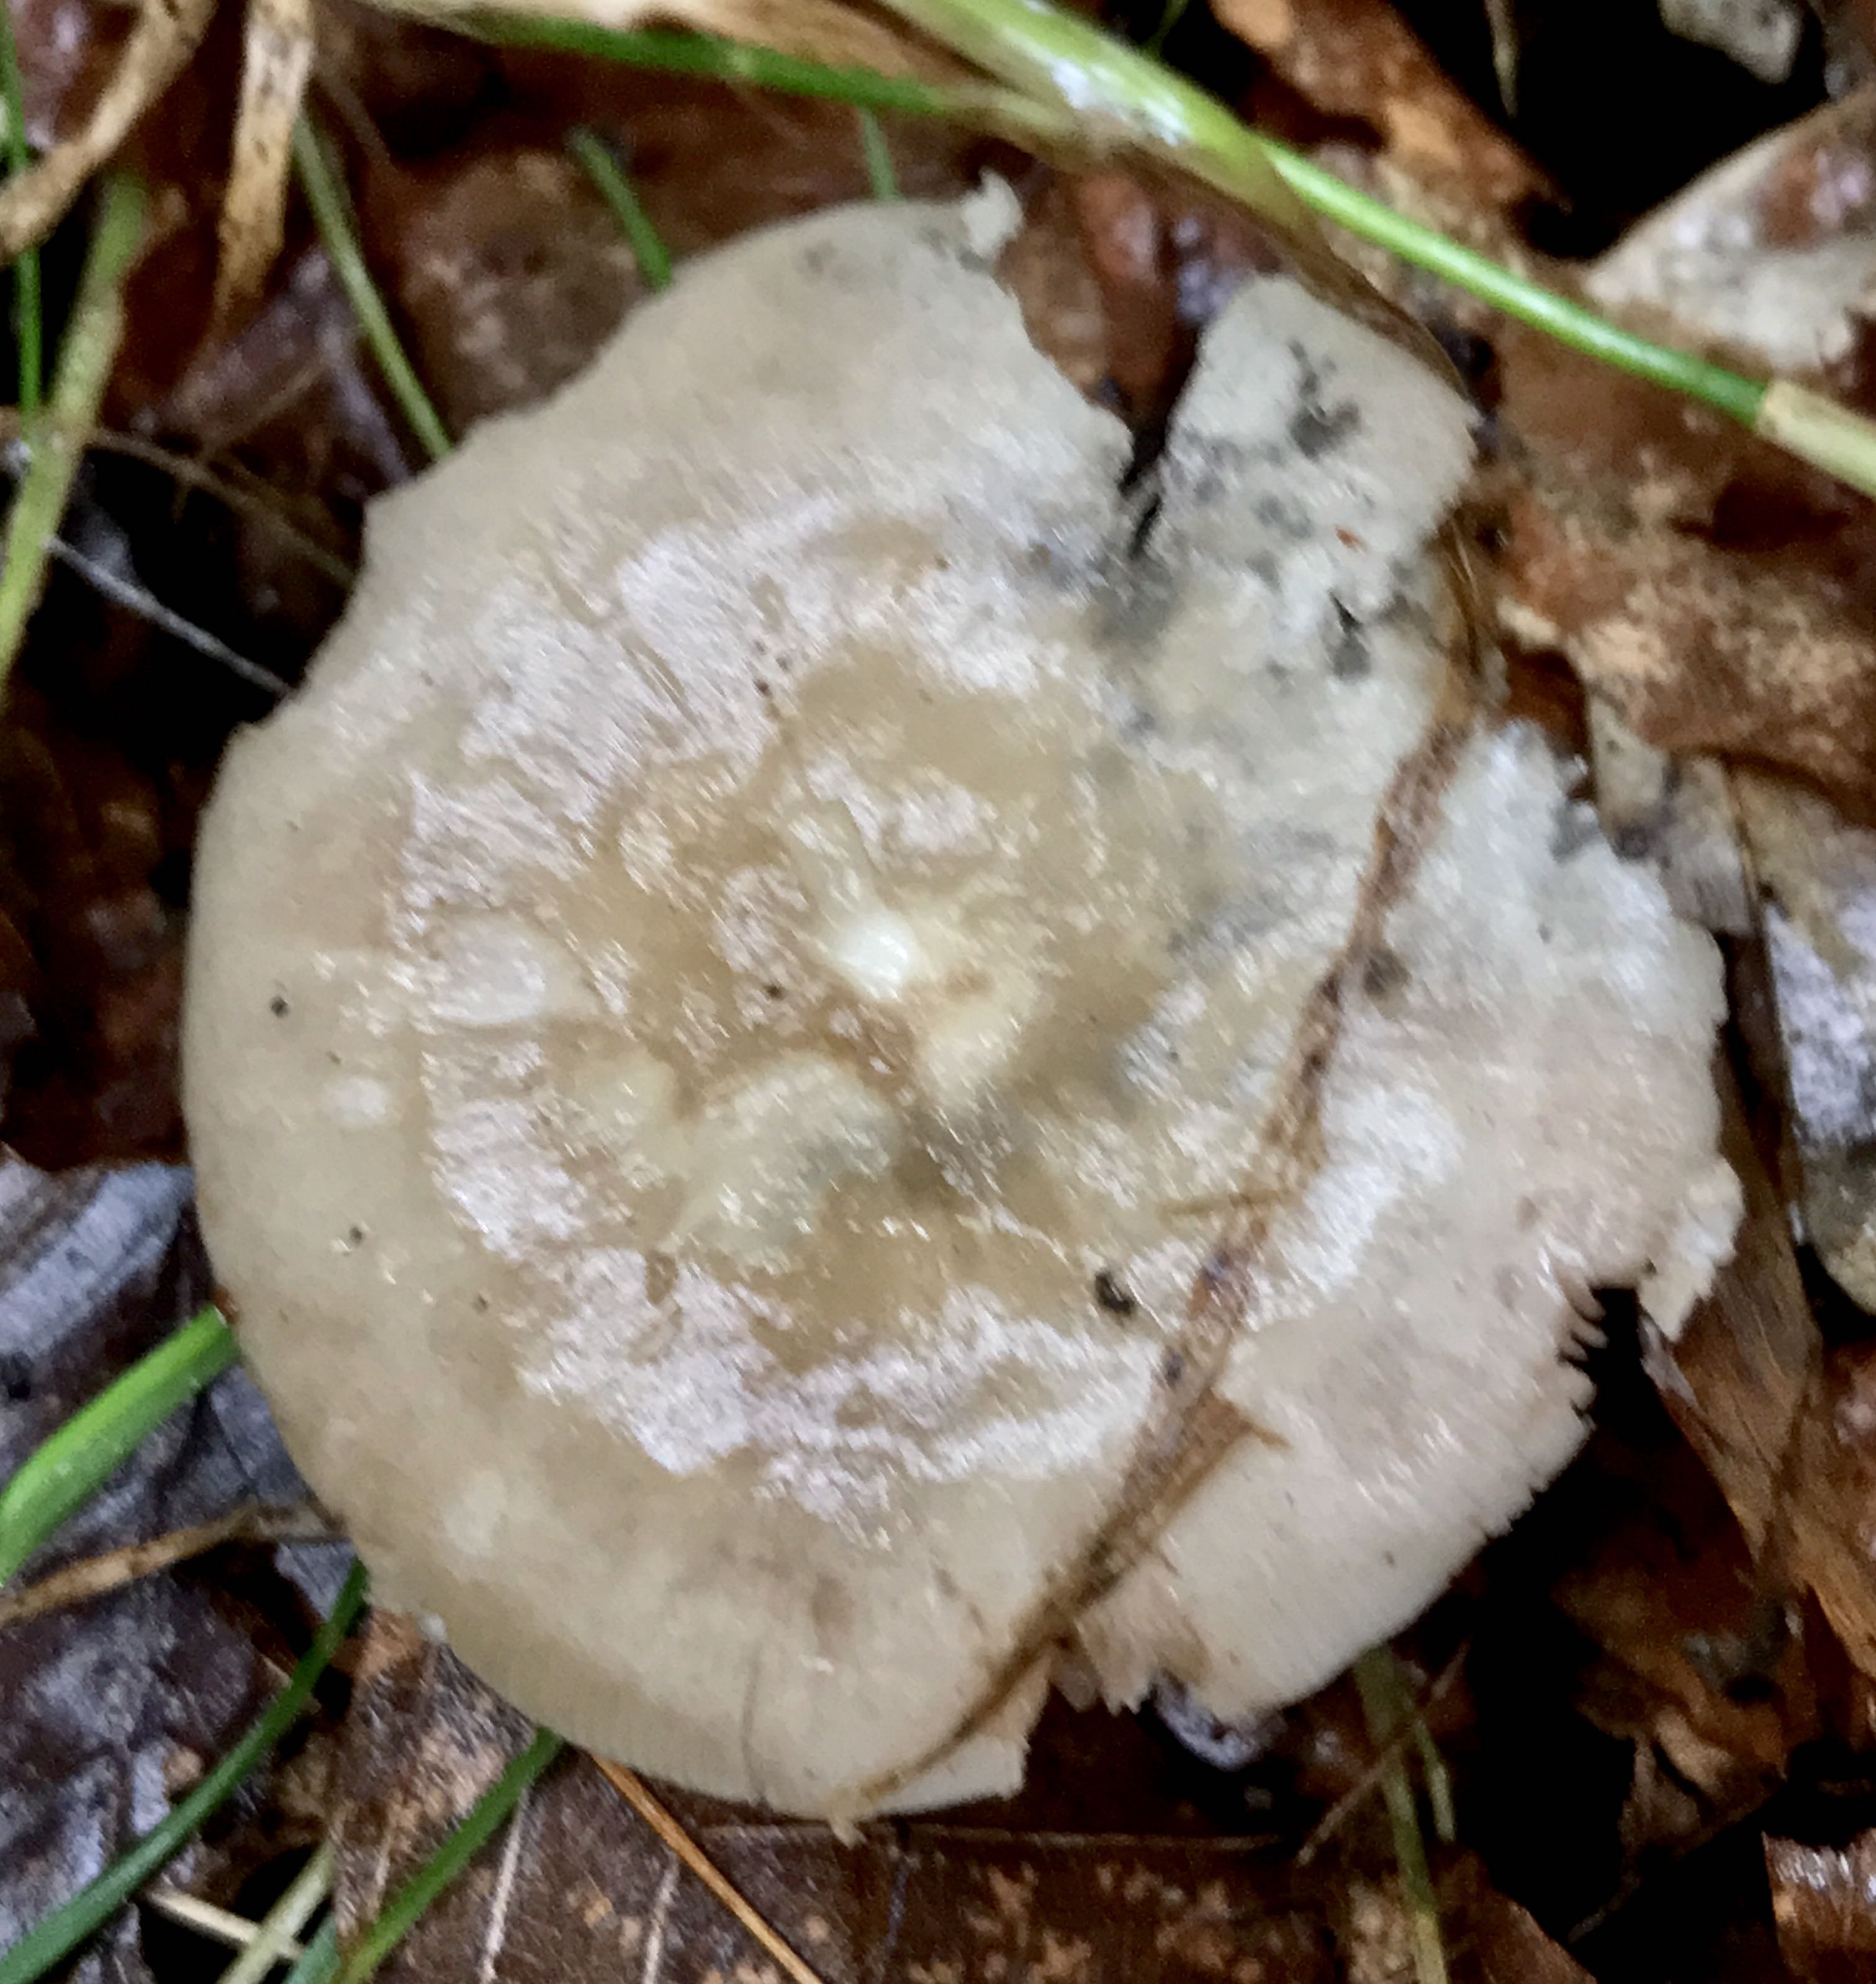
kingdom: Fungi
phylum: Basidiomycota
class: Agaricomycetes
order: Agaricales
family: Entolomataceae
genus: Entoloma
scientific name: Entoloma
